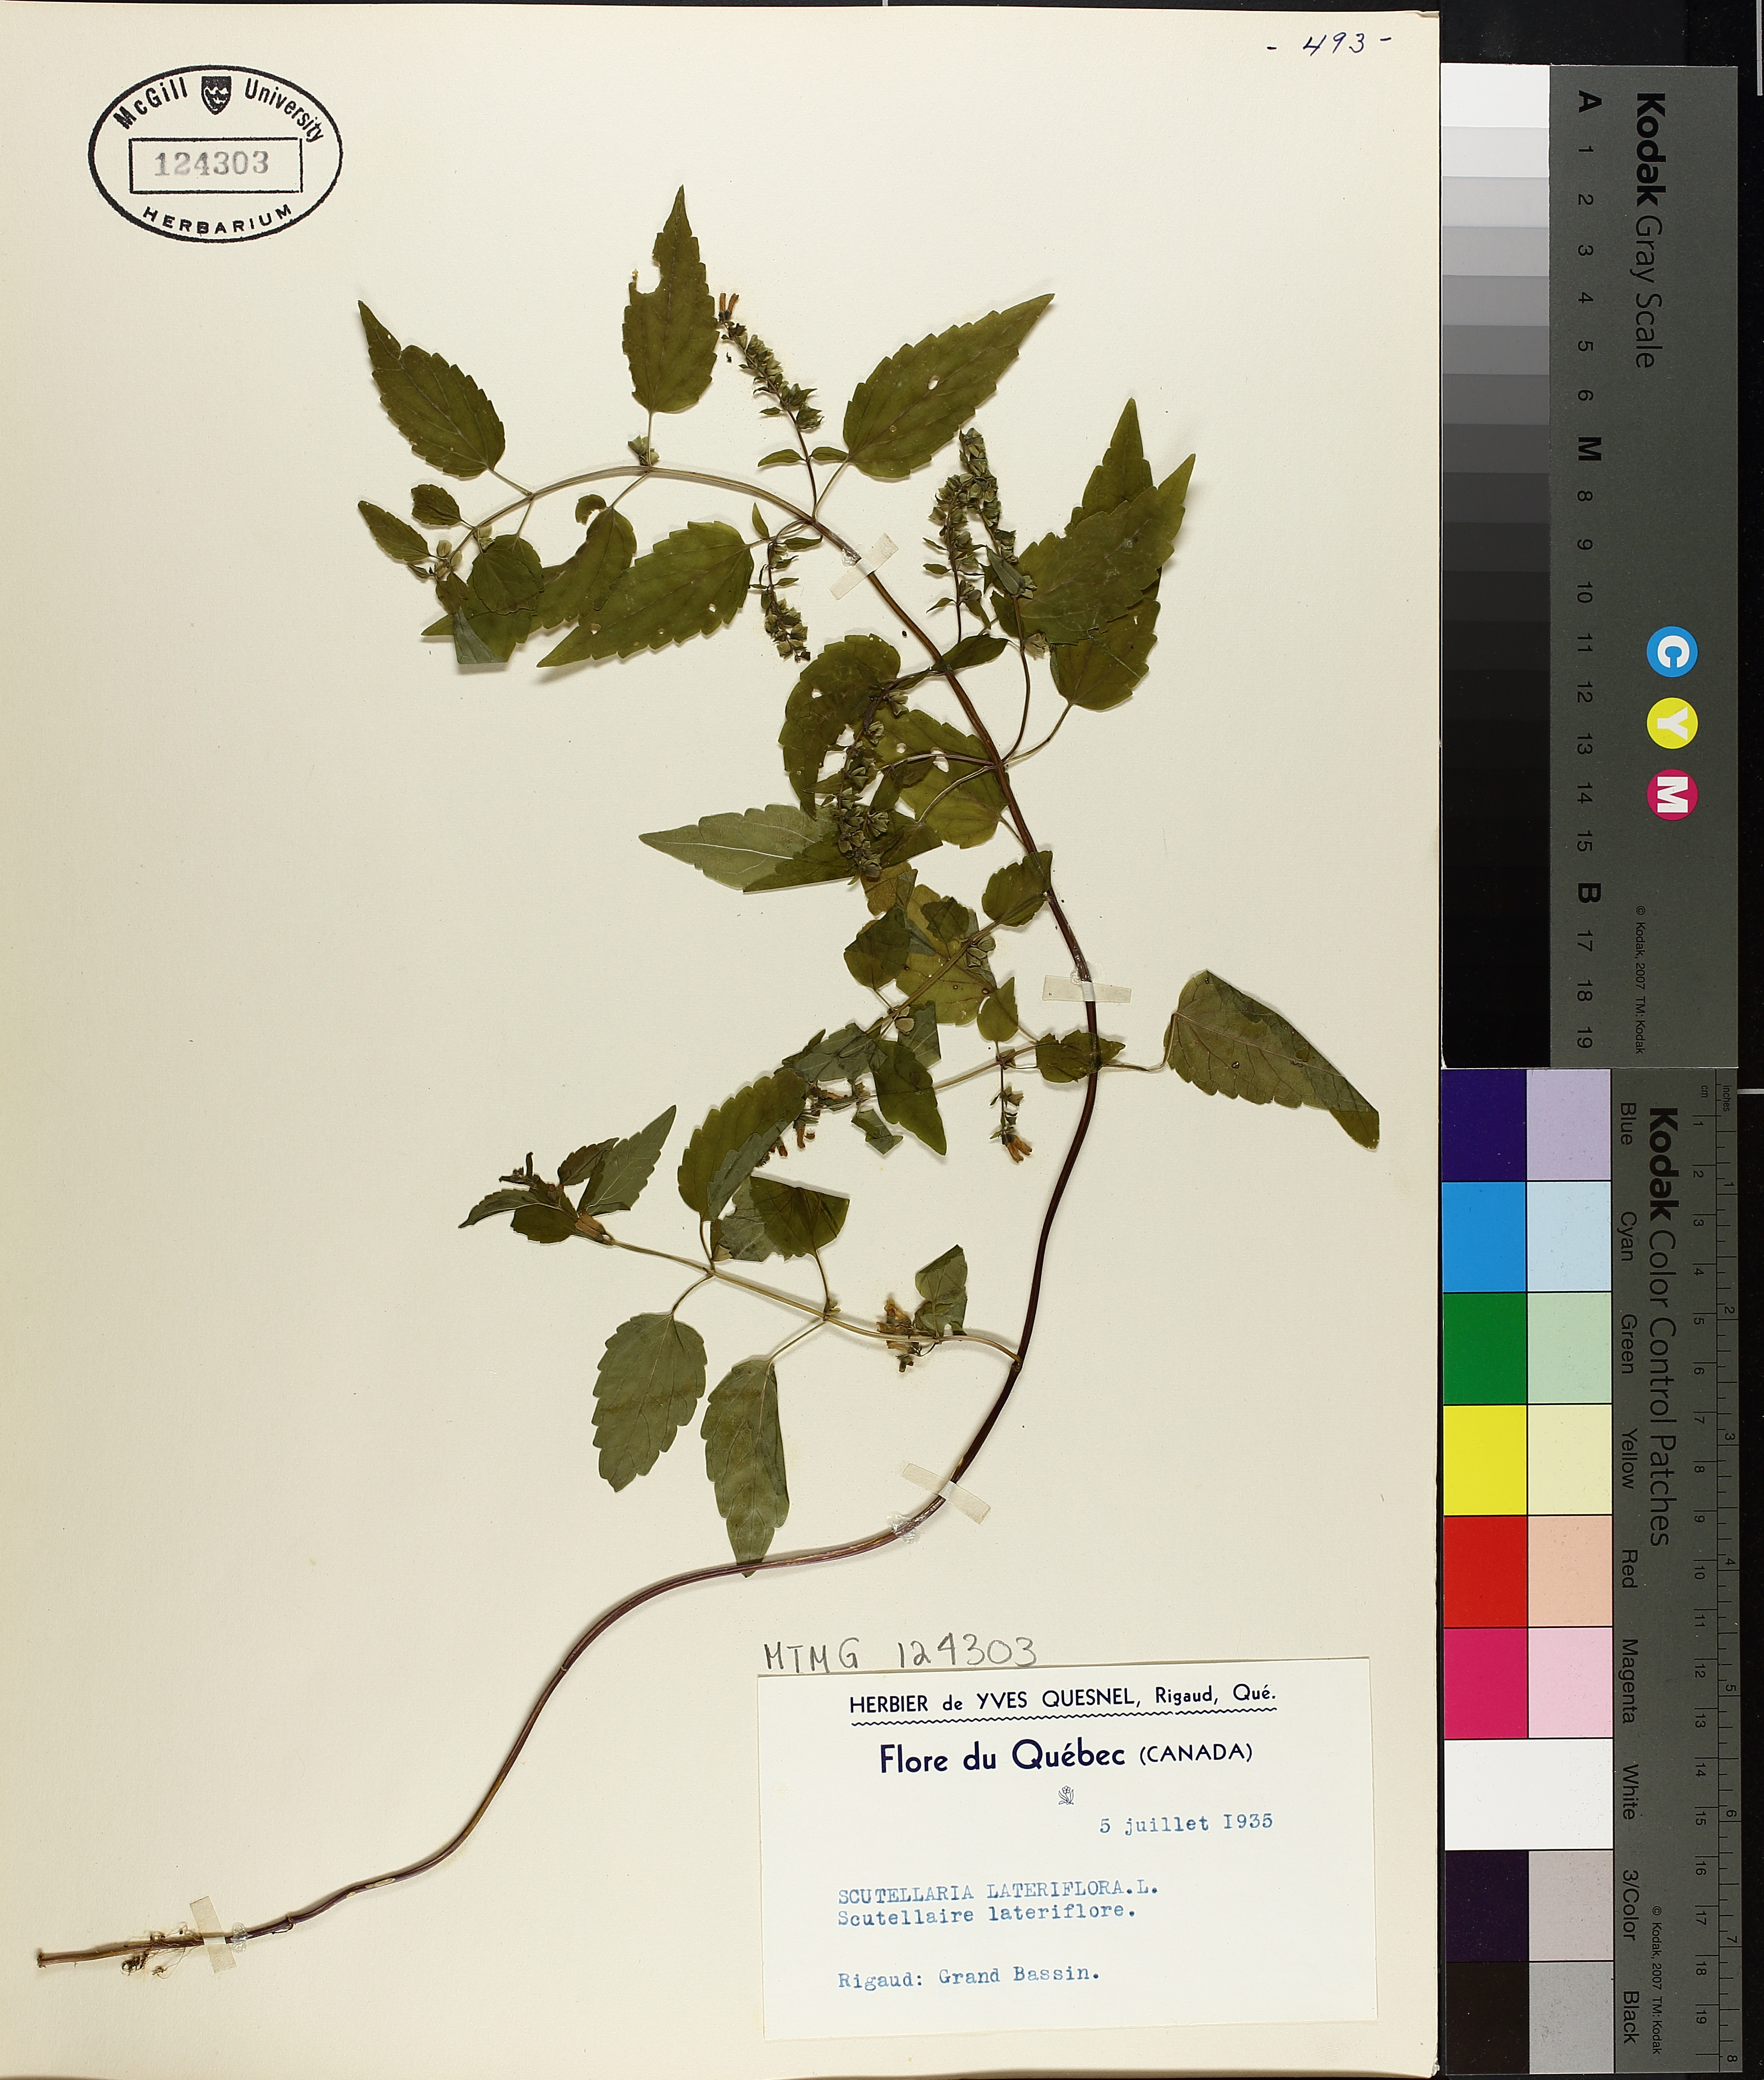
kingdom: Plantae
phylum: Tracheophyta
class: Magnoliopsida
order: Lamiales
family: Lamiaceae
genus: Scutellaria
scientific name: Scutellaria lateriflora
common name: Blue skullcap
